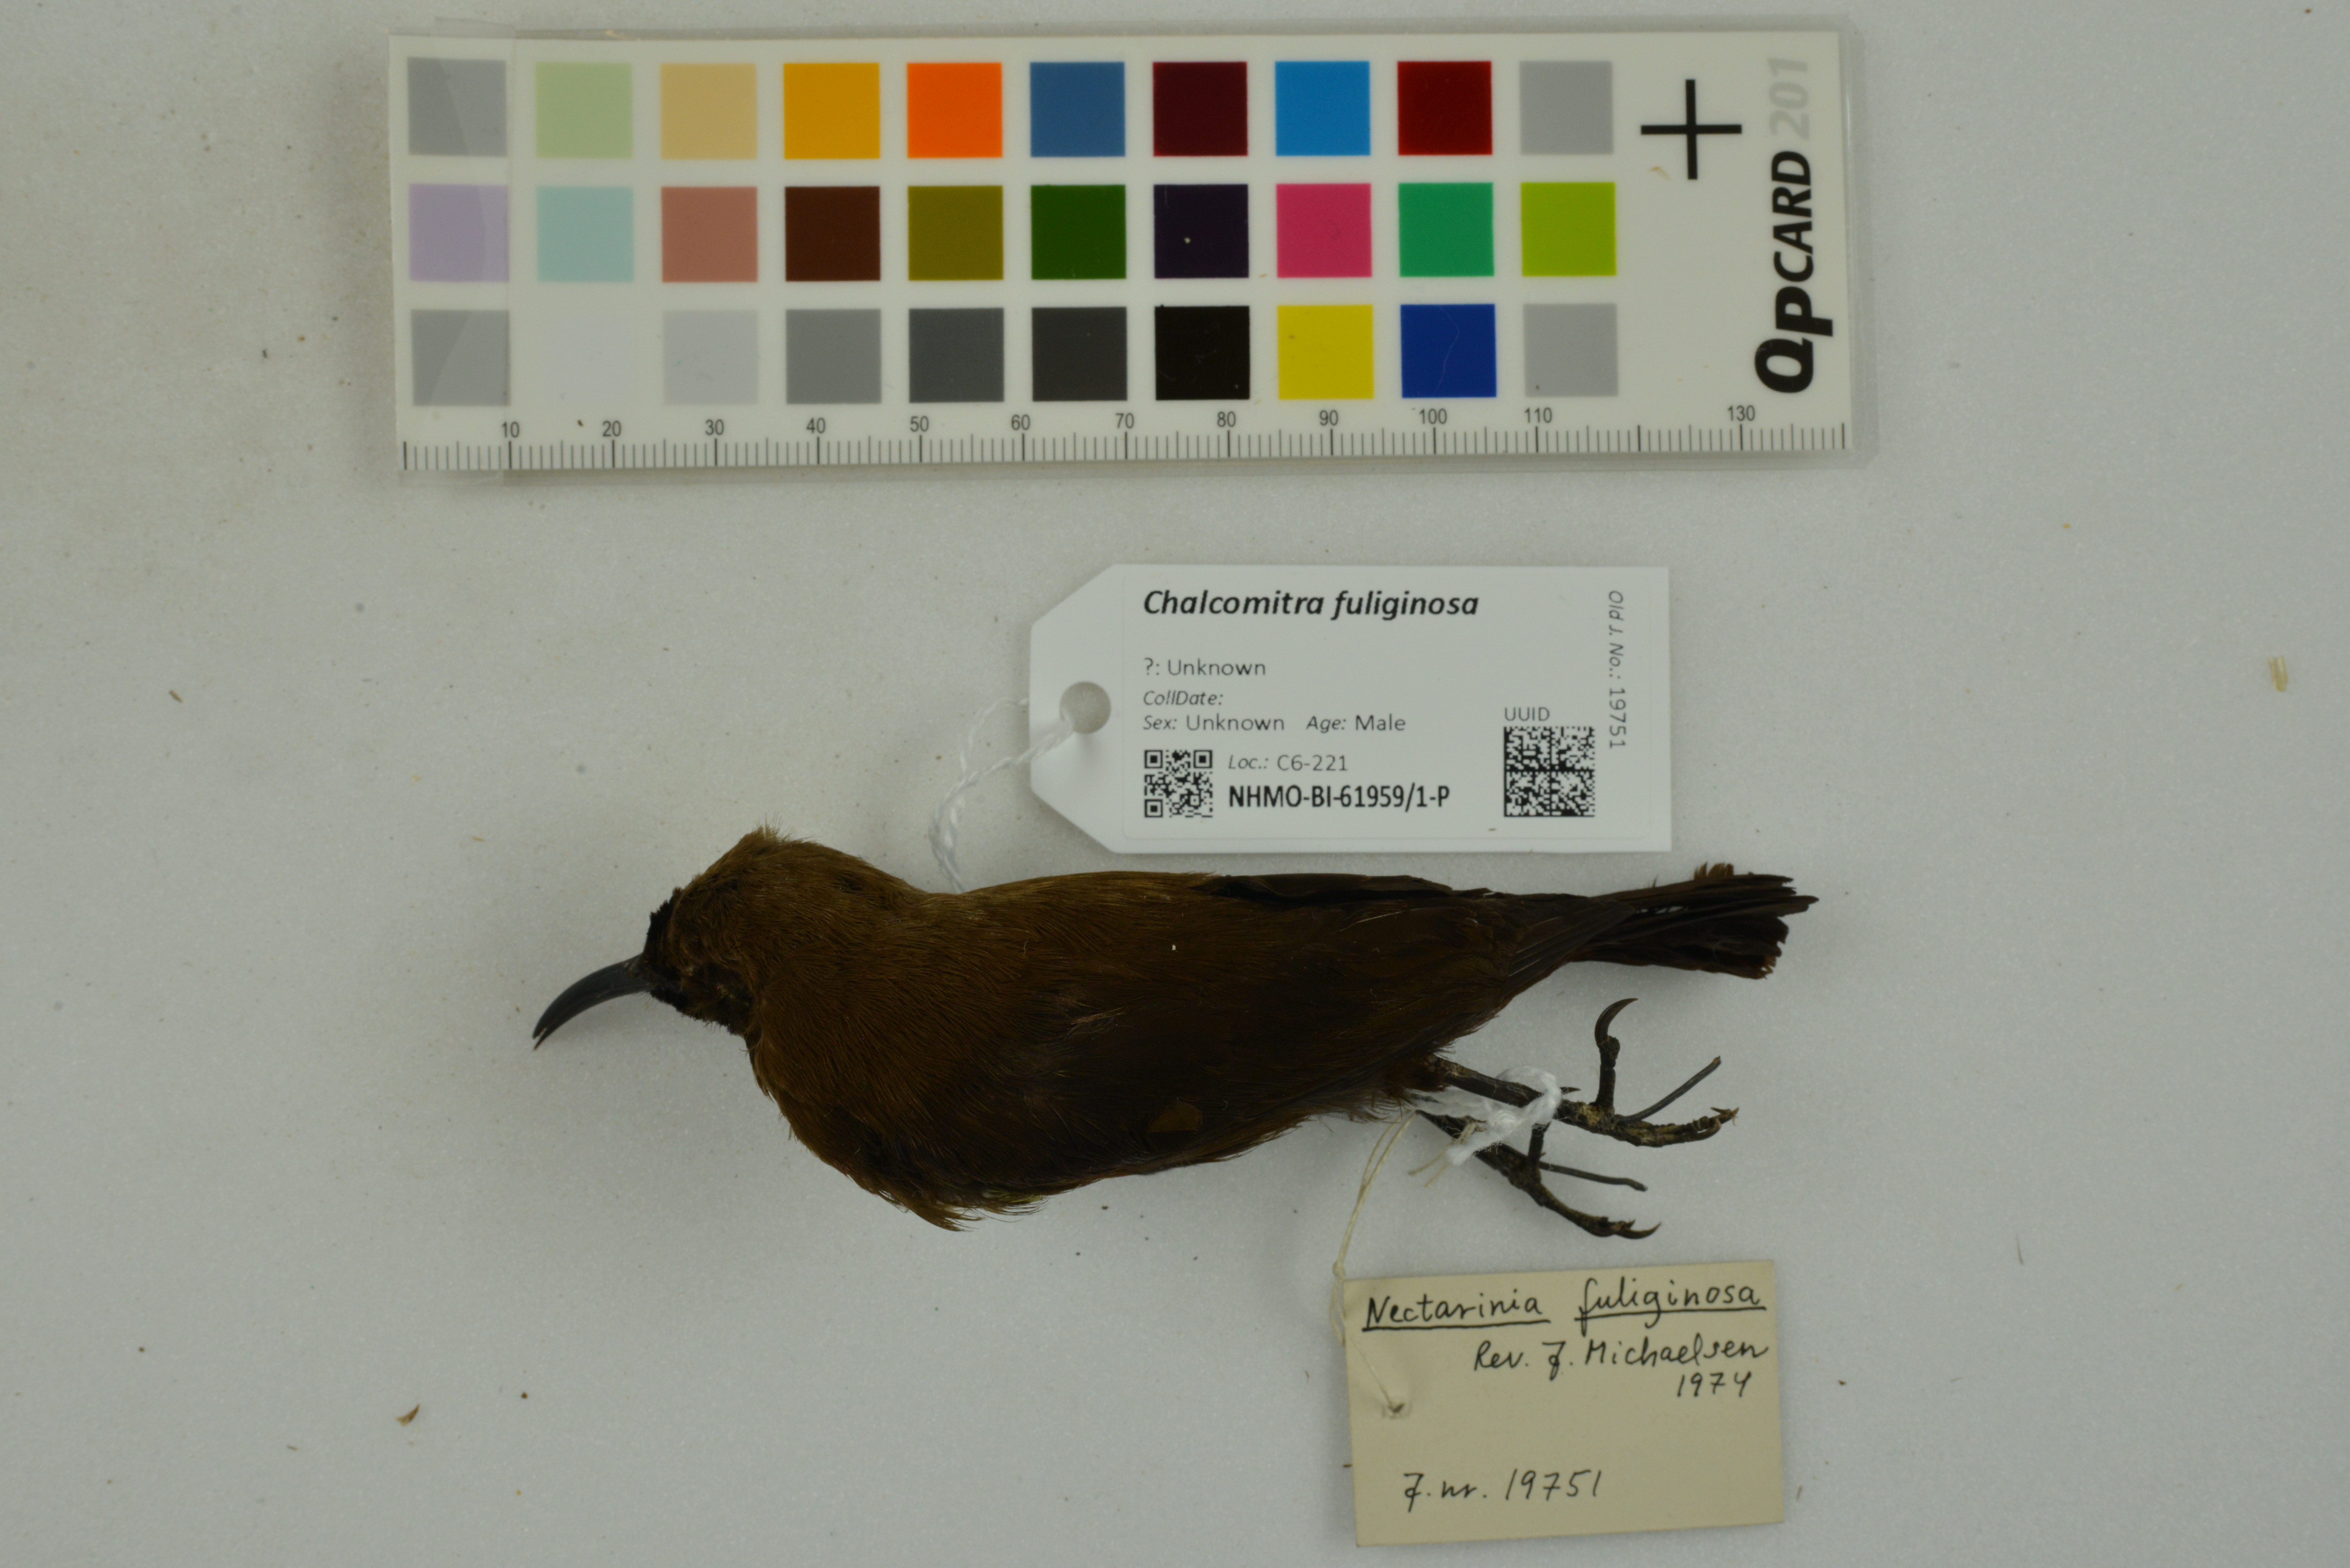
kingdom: Animalia
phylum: Chordata
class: Aves
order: Passeriformes
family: Nectariniidae
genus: Chalcomitra
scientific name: Chalcomitra fuliginosa
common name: Carmelite sunbird
